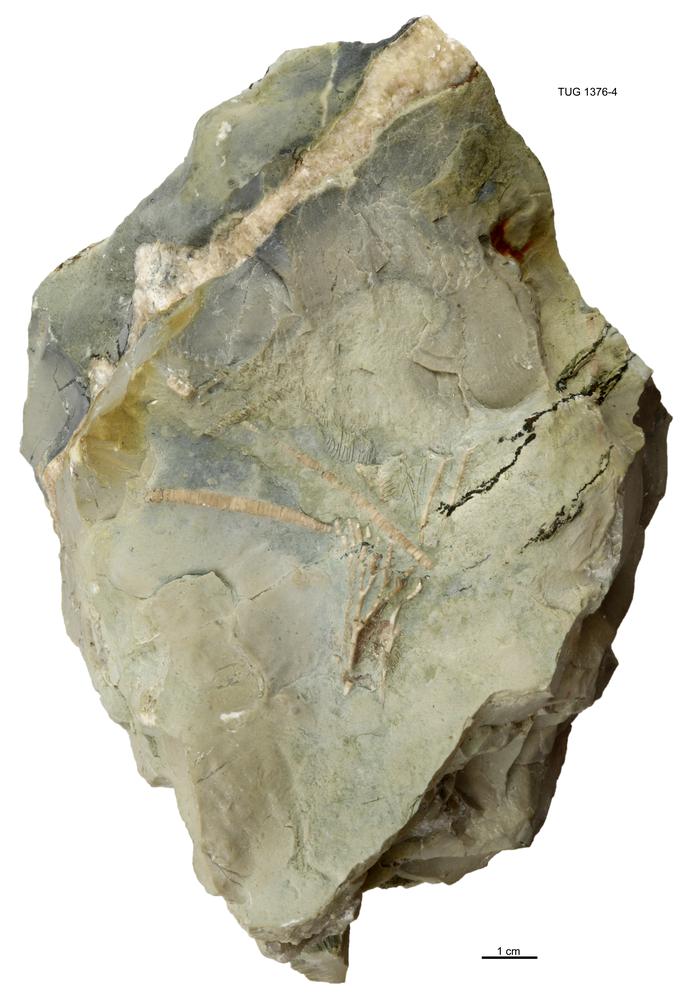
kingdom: Animalia
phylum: Echinodermata
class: Crinoidea
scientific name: Crinoidea
